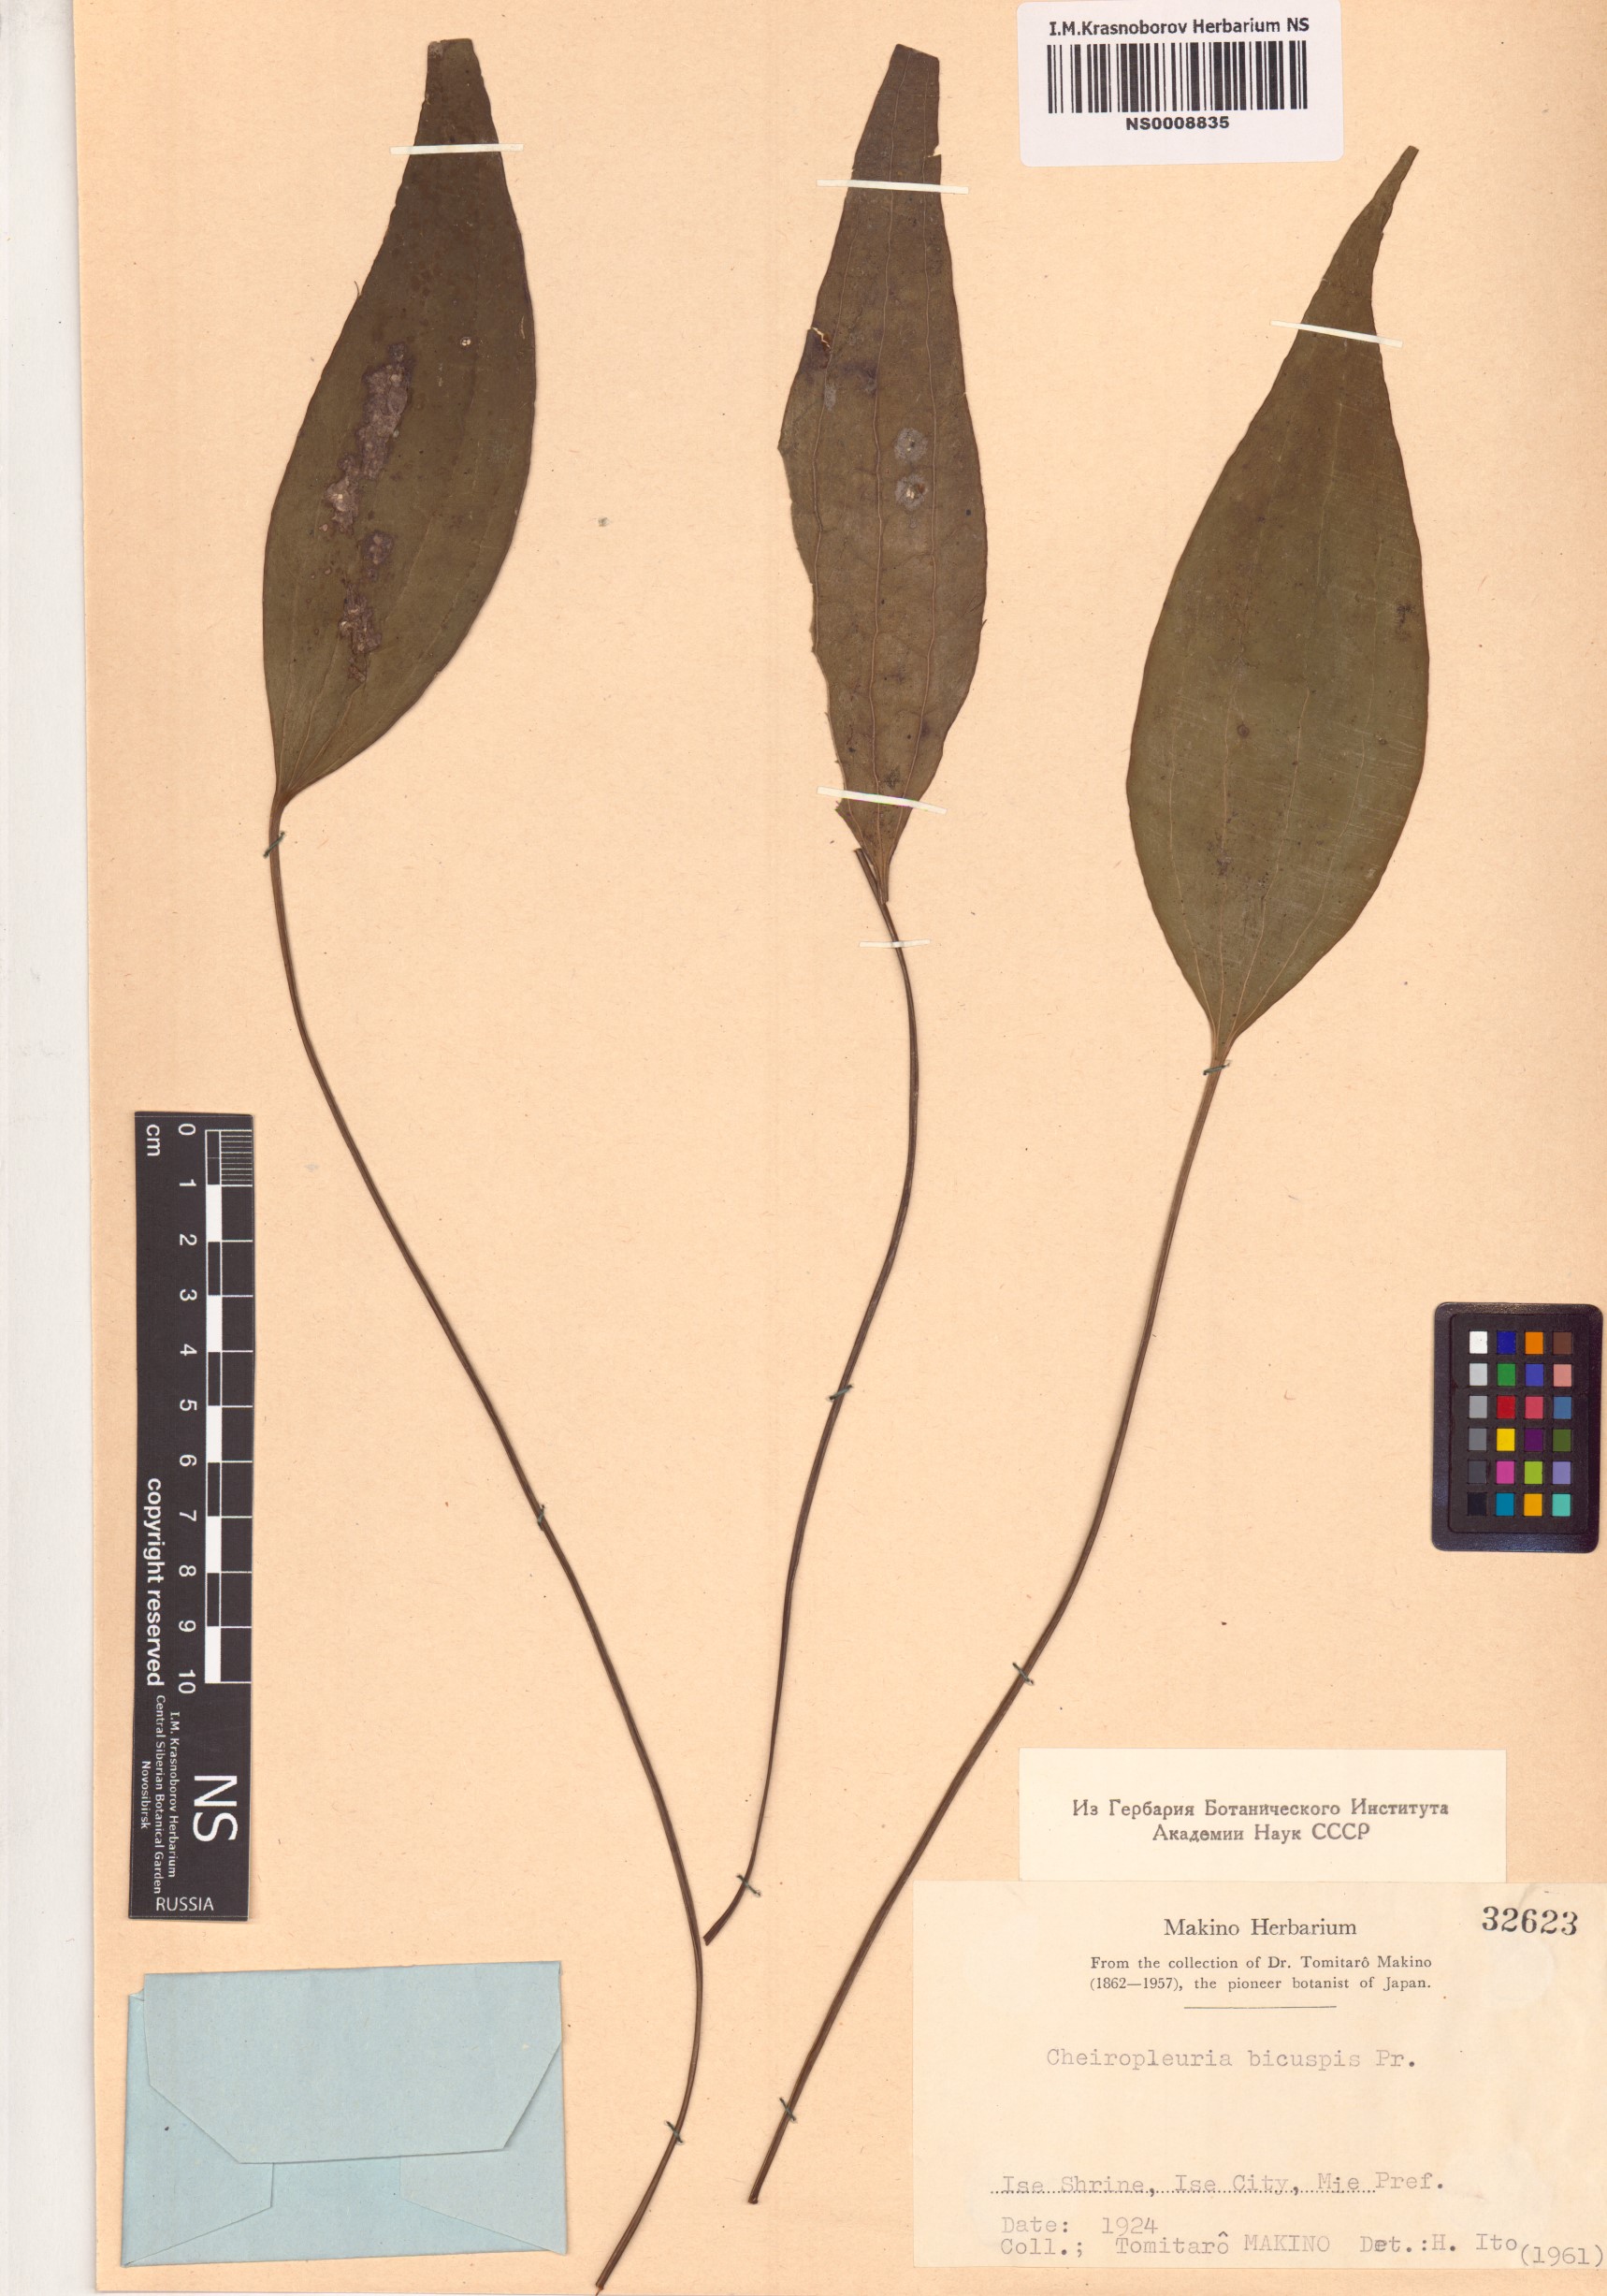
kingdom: Plantae
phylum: Tracheophyta
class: Polypodiopsida
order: Gleicheniales
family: Dipteridaceae
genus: Cheiropleuria
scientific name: Cheiropleuria bicuspis
